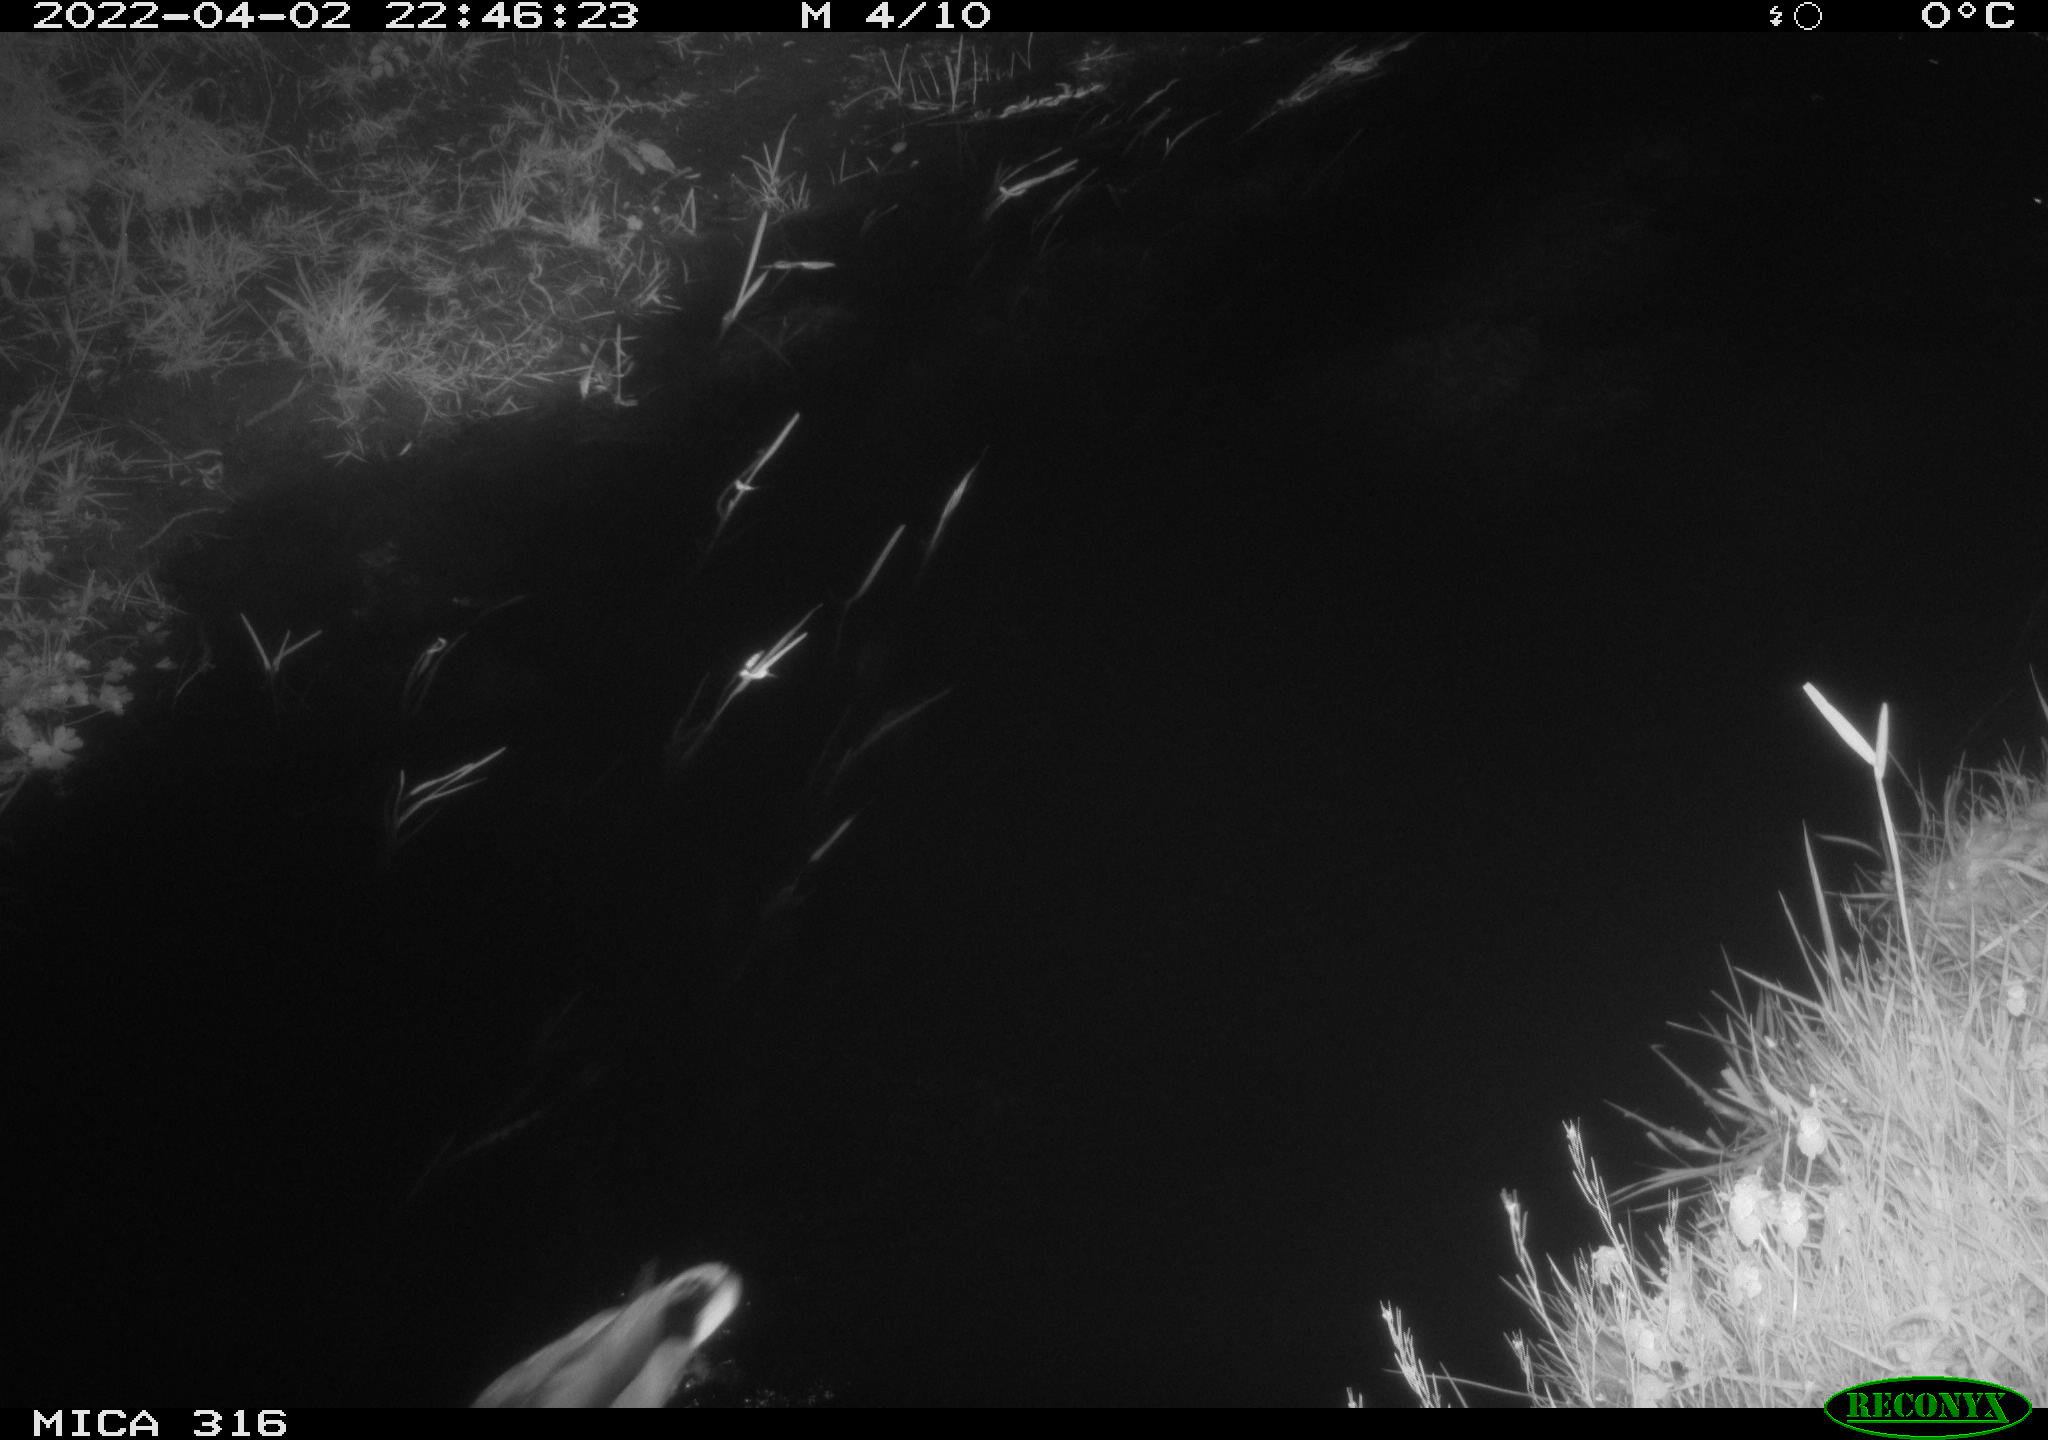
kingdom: Animalia
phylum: Chordata
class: Aves
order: Anseriformes
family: Anatidae
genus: Anas
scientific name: Anas platyrhynchos
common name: Mallard
